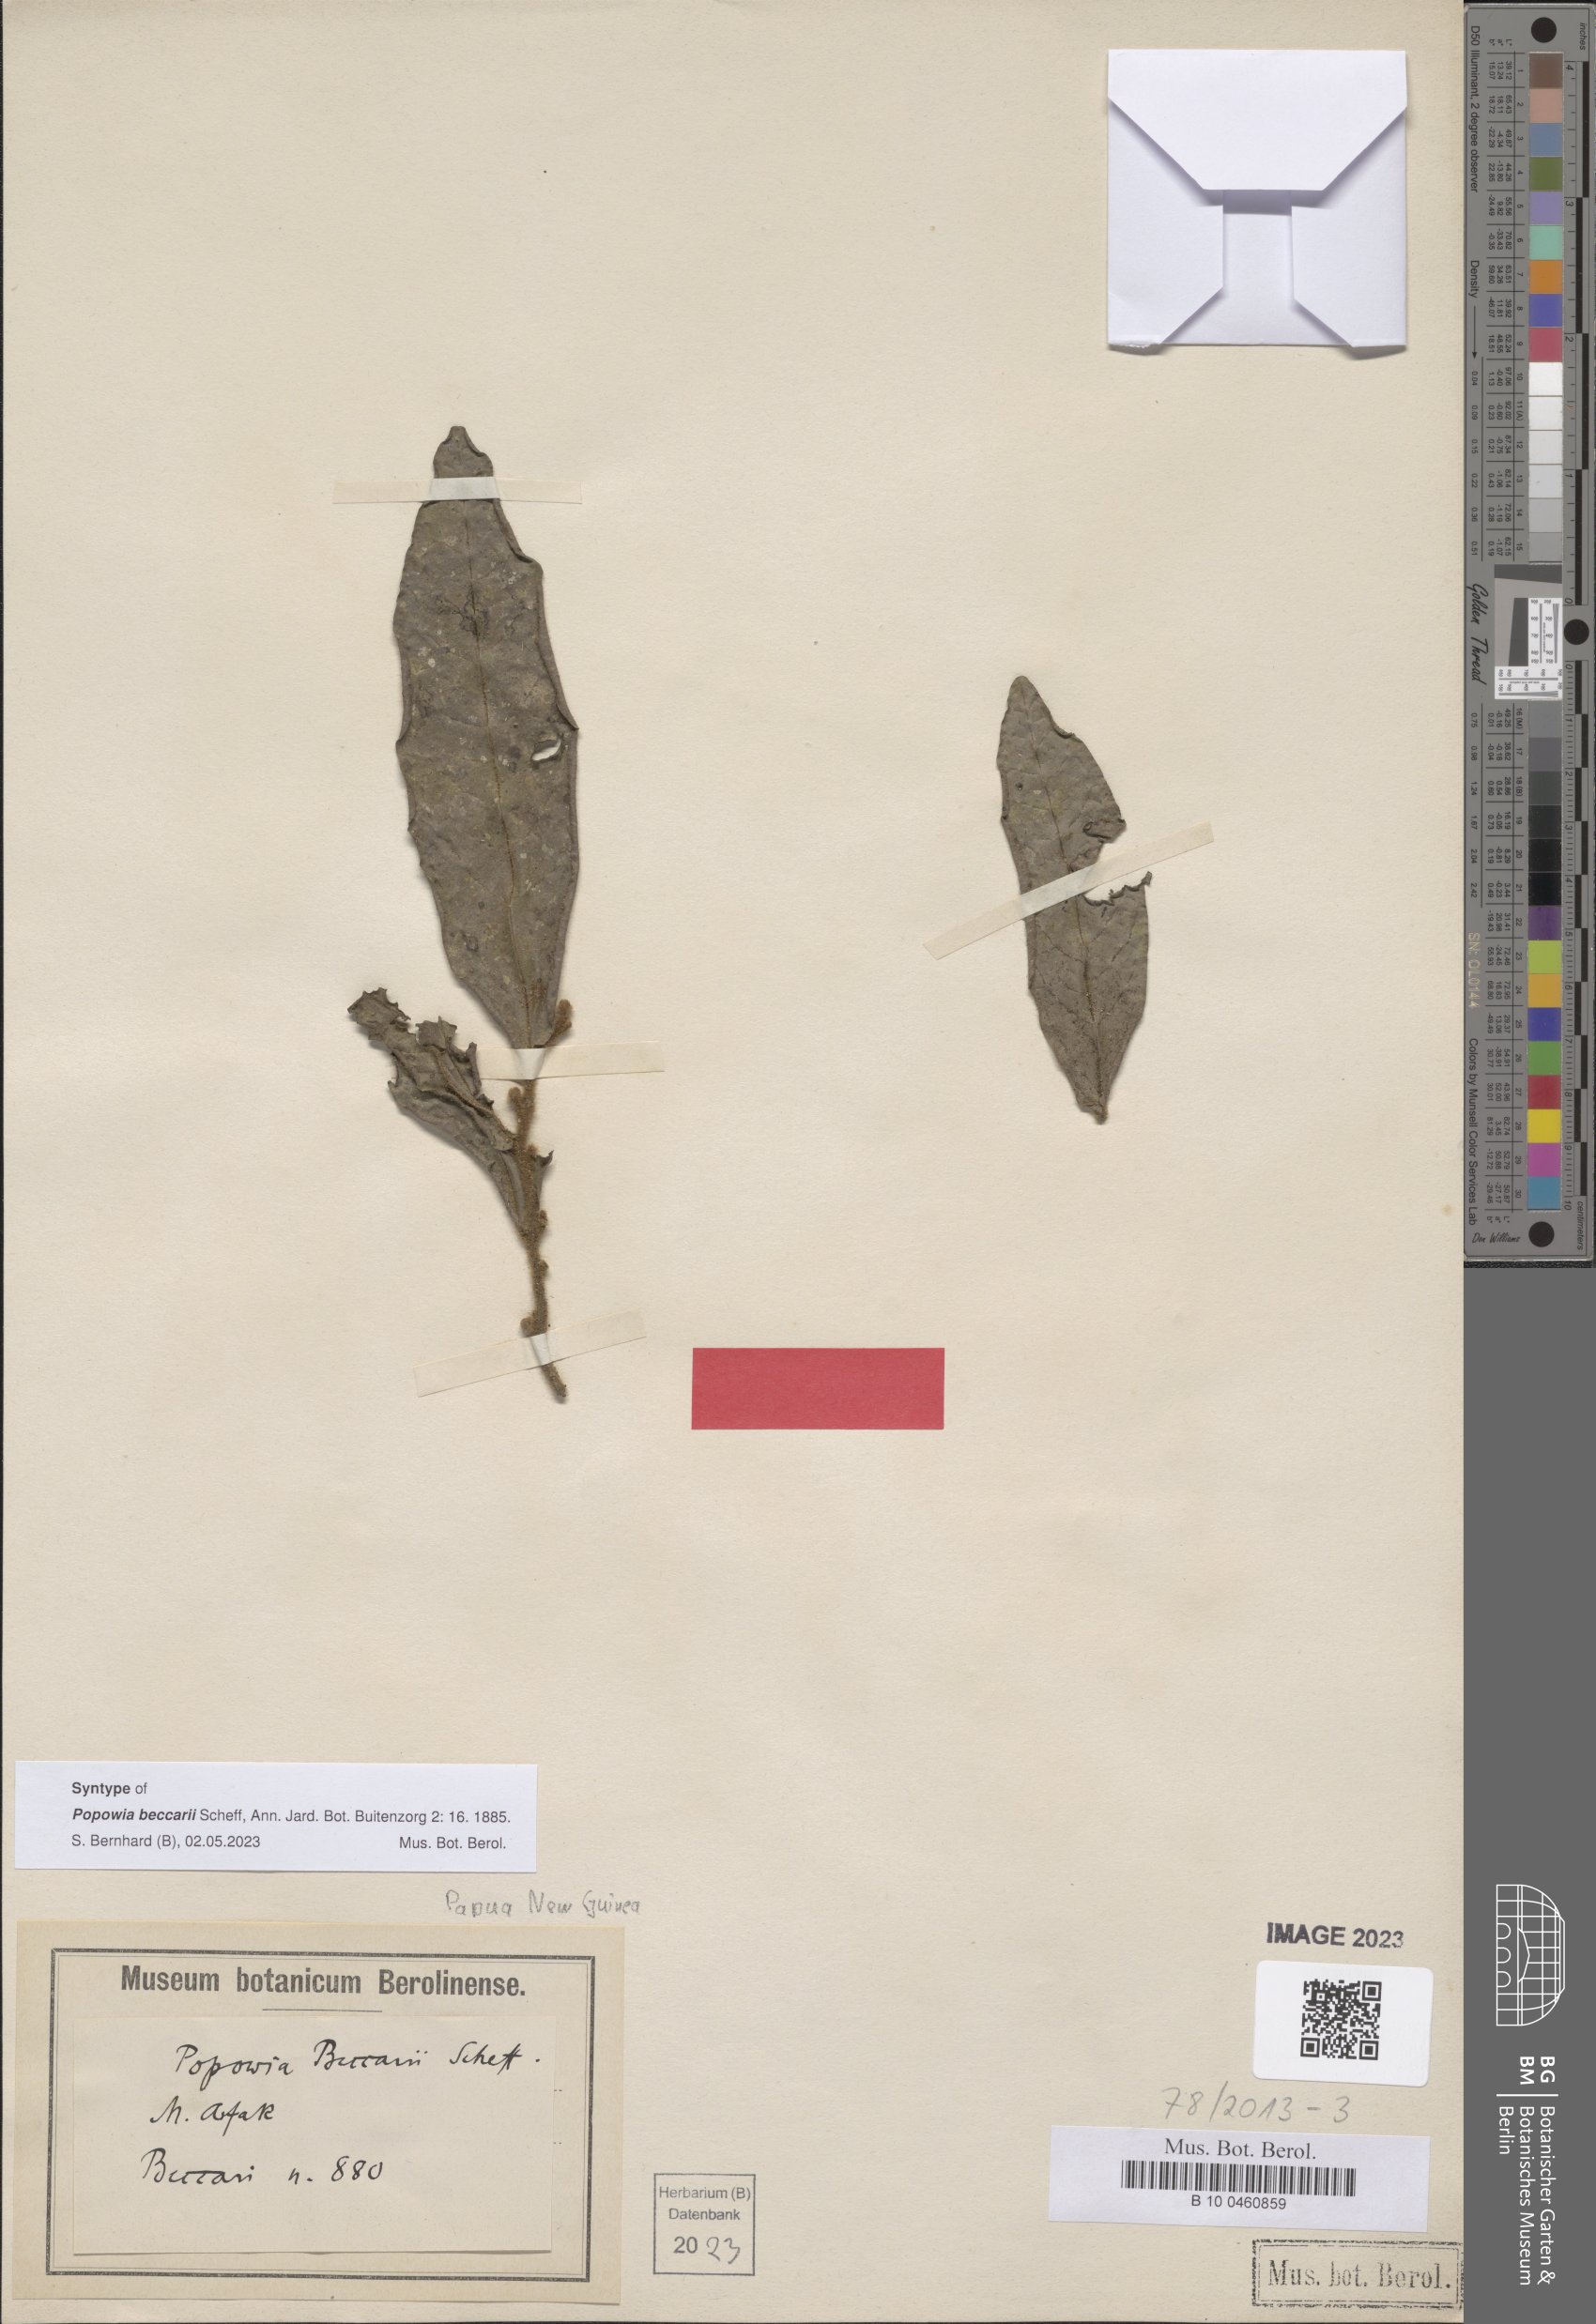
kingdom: Plantae
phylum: Tracheophyta
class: Magnoliopsida
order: Magnoliales
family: Annonaceae
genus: Popowia
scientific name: Popowia beccarii
